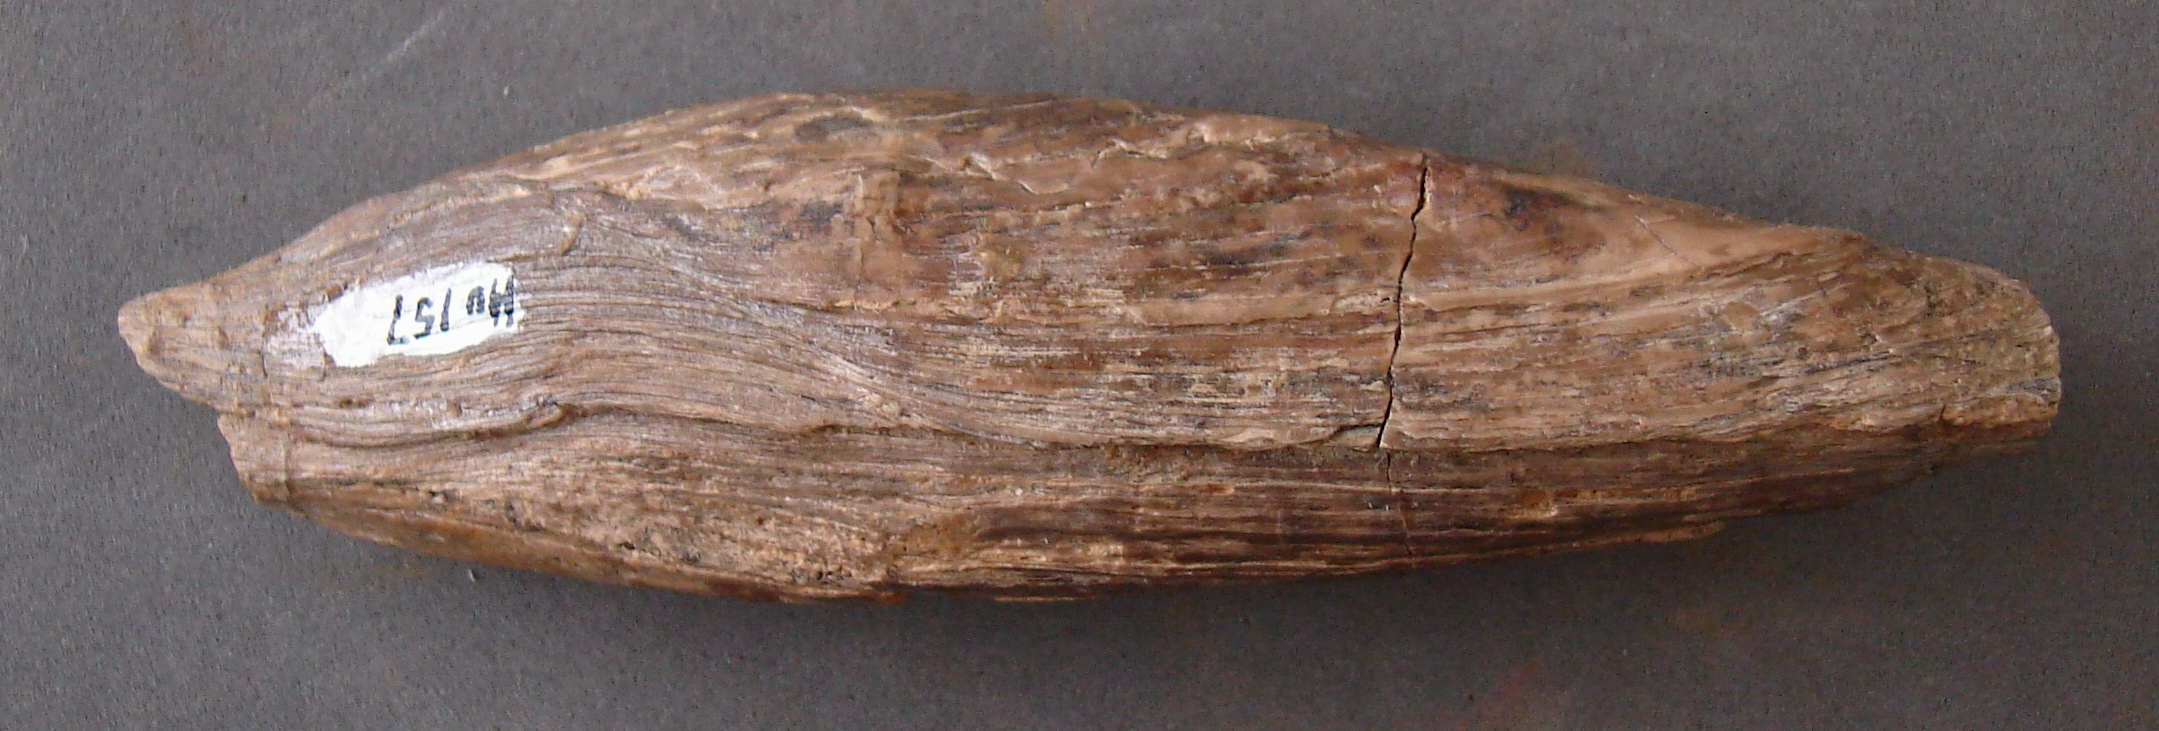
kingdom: Animalia
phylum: Mollusca
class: Bivalvia
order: Ostreida
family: Bakevelliidae
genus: Gervillia
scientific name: Gervillia
